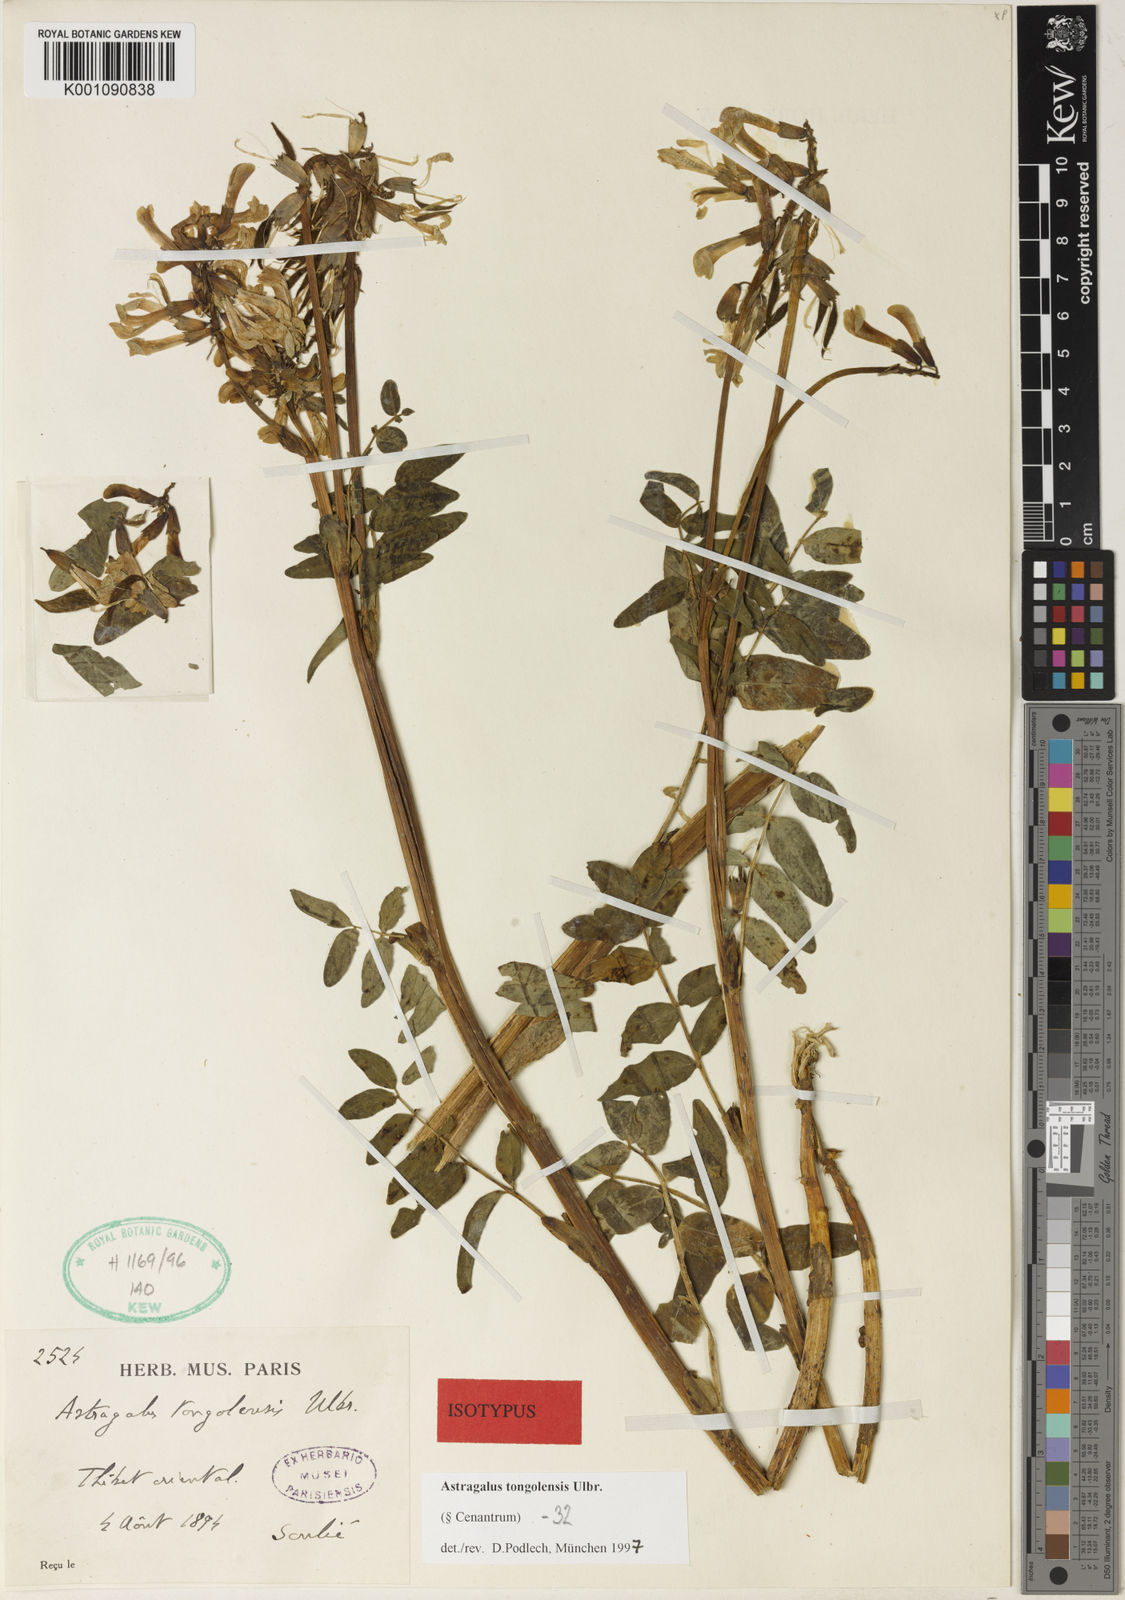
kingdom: Plantae
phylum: Tracheophyta
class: Magnoliopsida
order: Fabales
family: Fabaceae
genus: Astragalus
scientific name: Astragalus
